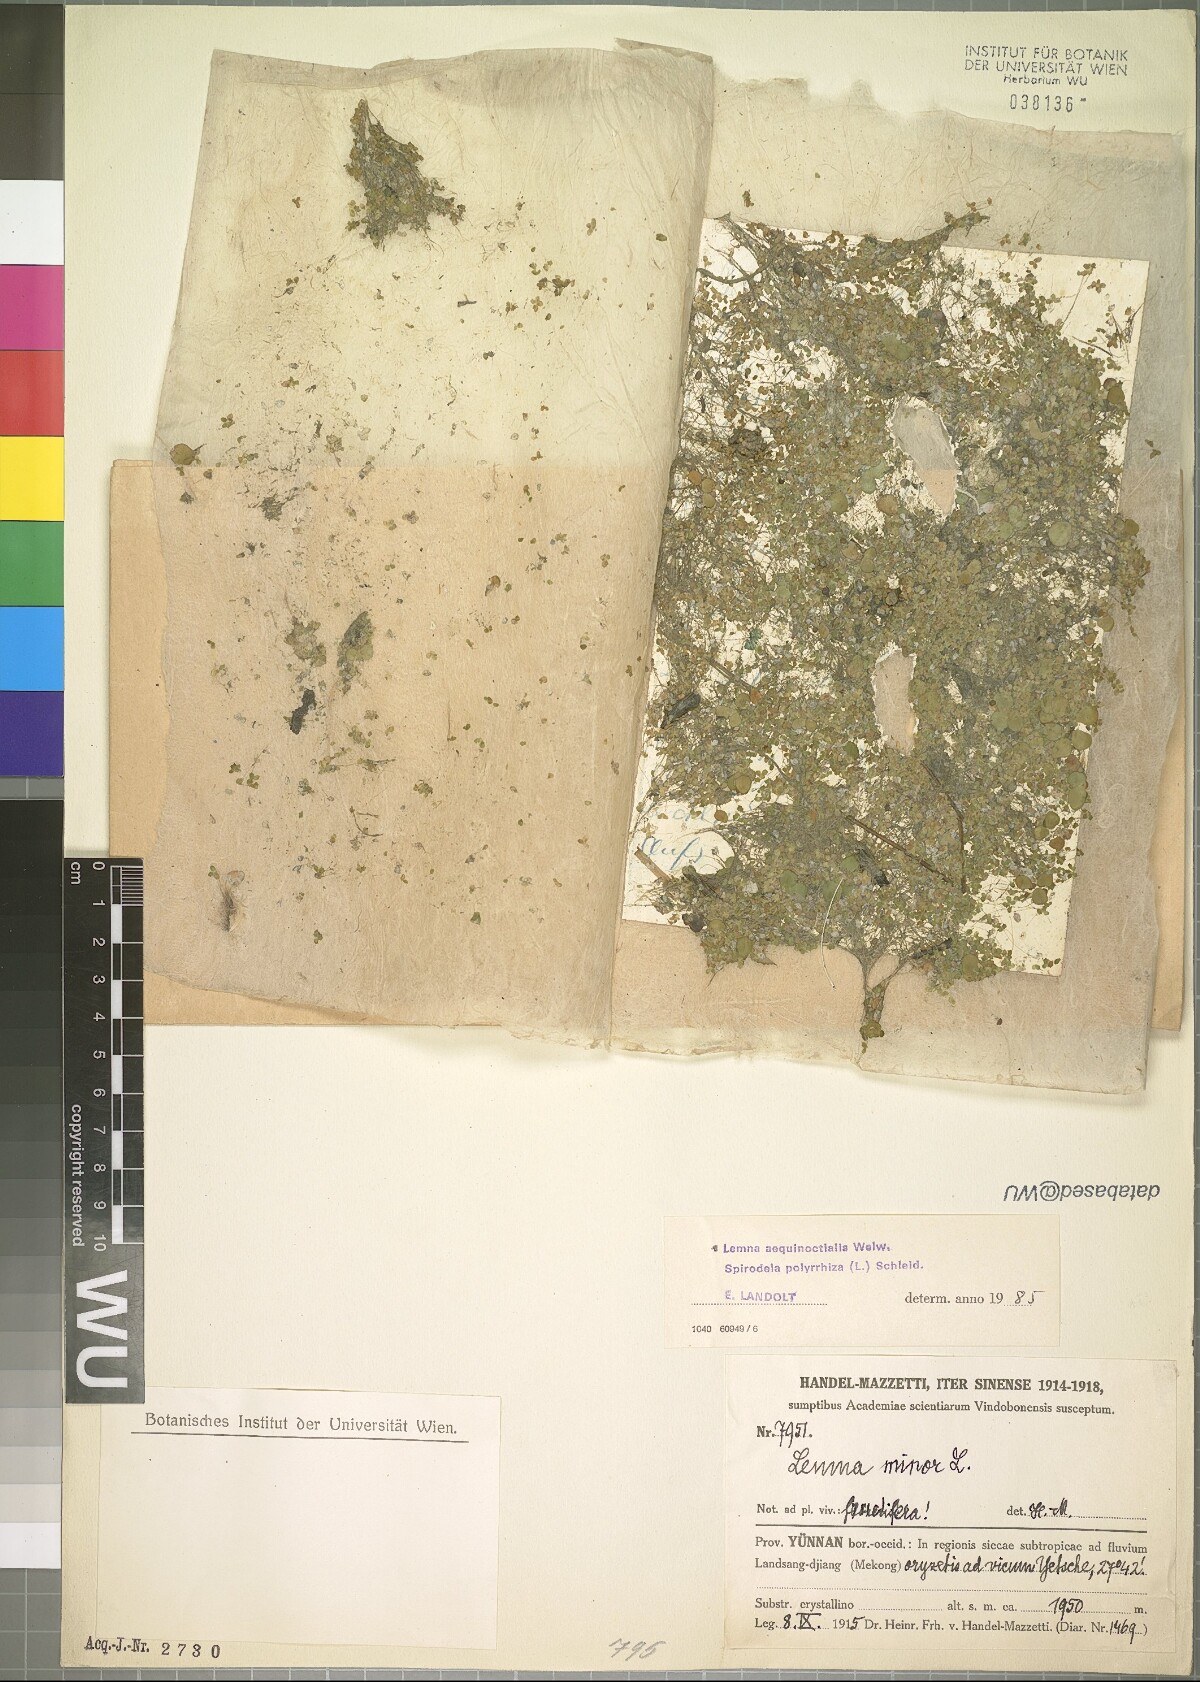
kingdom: Plantae
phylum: Tracheophyta
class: Liliopsida
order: Alismatales
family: Araceae
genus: Lemna
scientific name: Lemna aequinoctialis
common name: Duckweed
